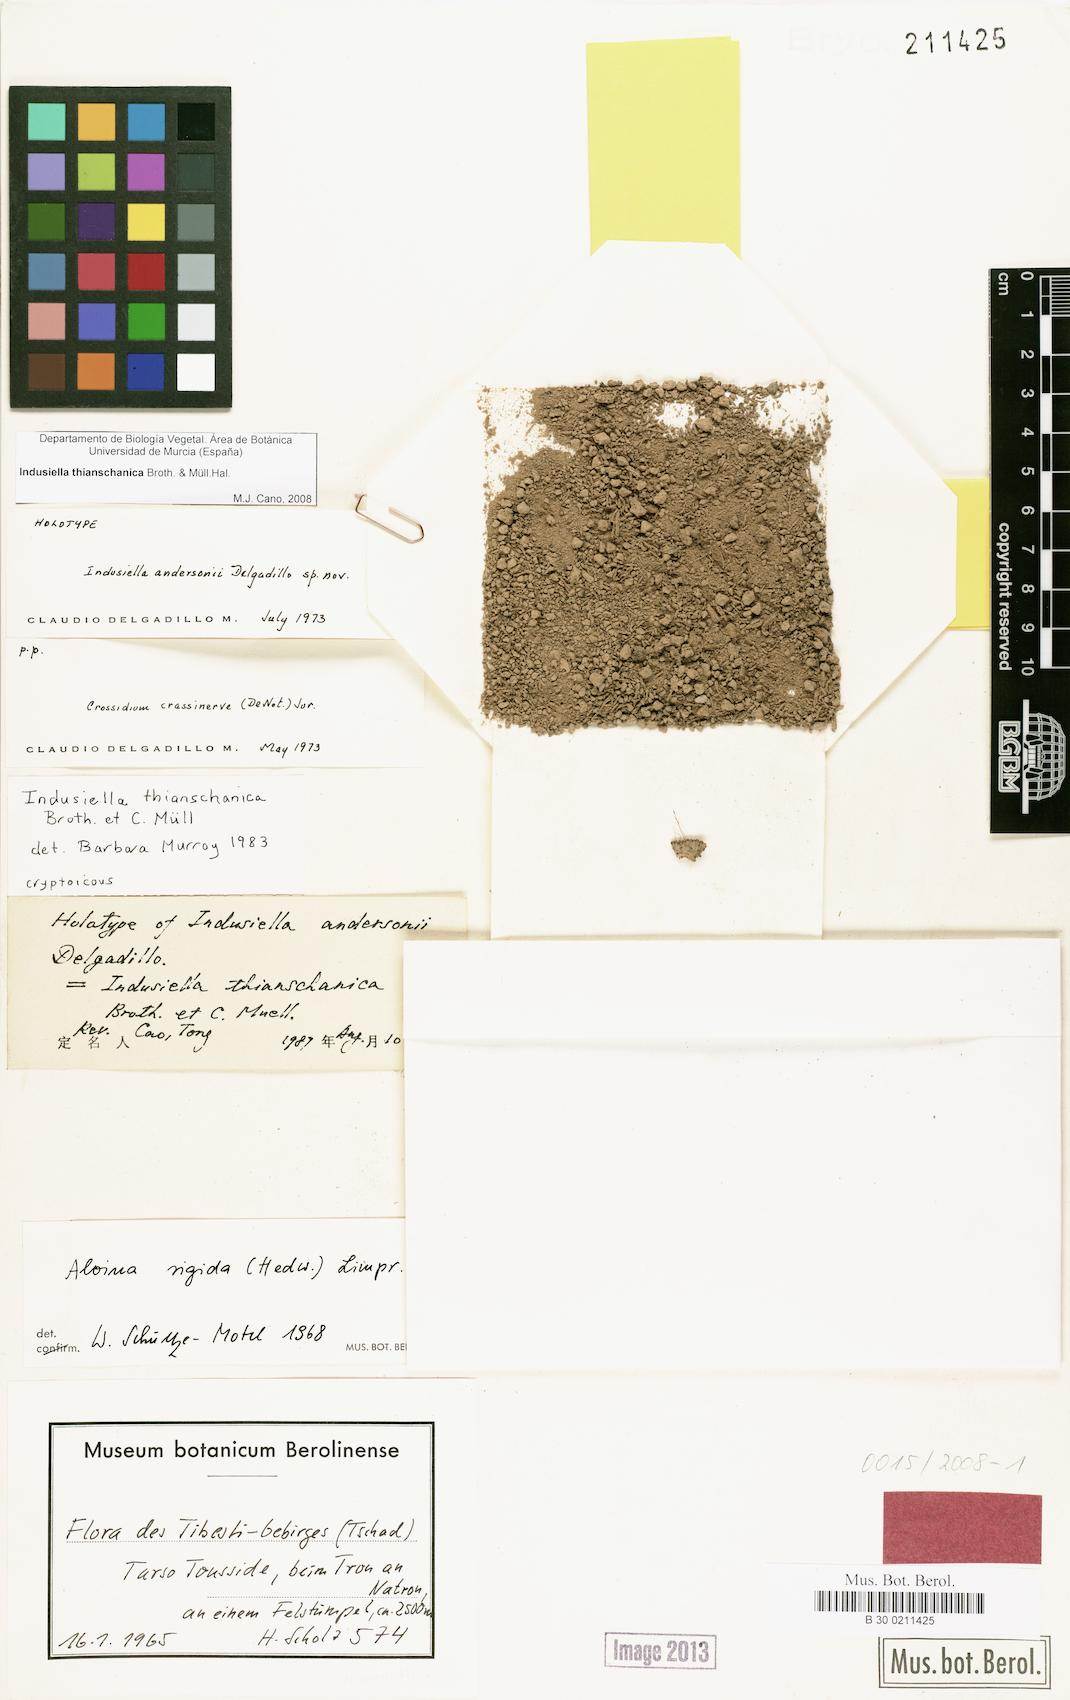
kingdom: Plantae
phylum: Bryophyta
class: Bryopsida
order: Grimmiales
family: Ptychomitriaceae
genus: Indusiella
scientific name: Indusiella thianschanica
